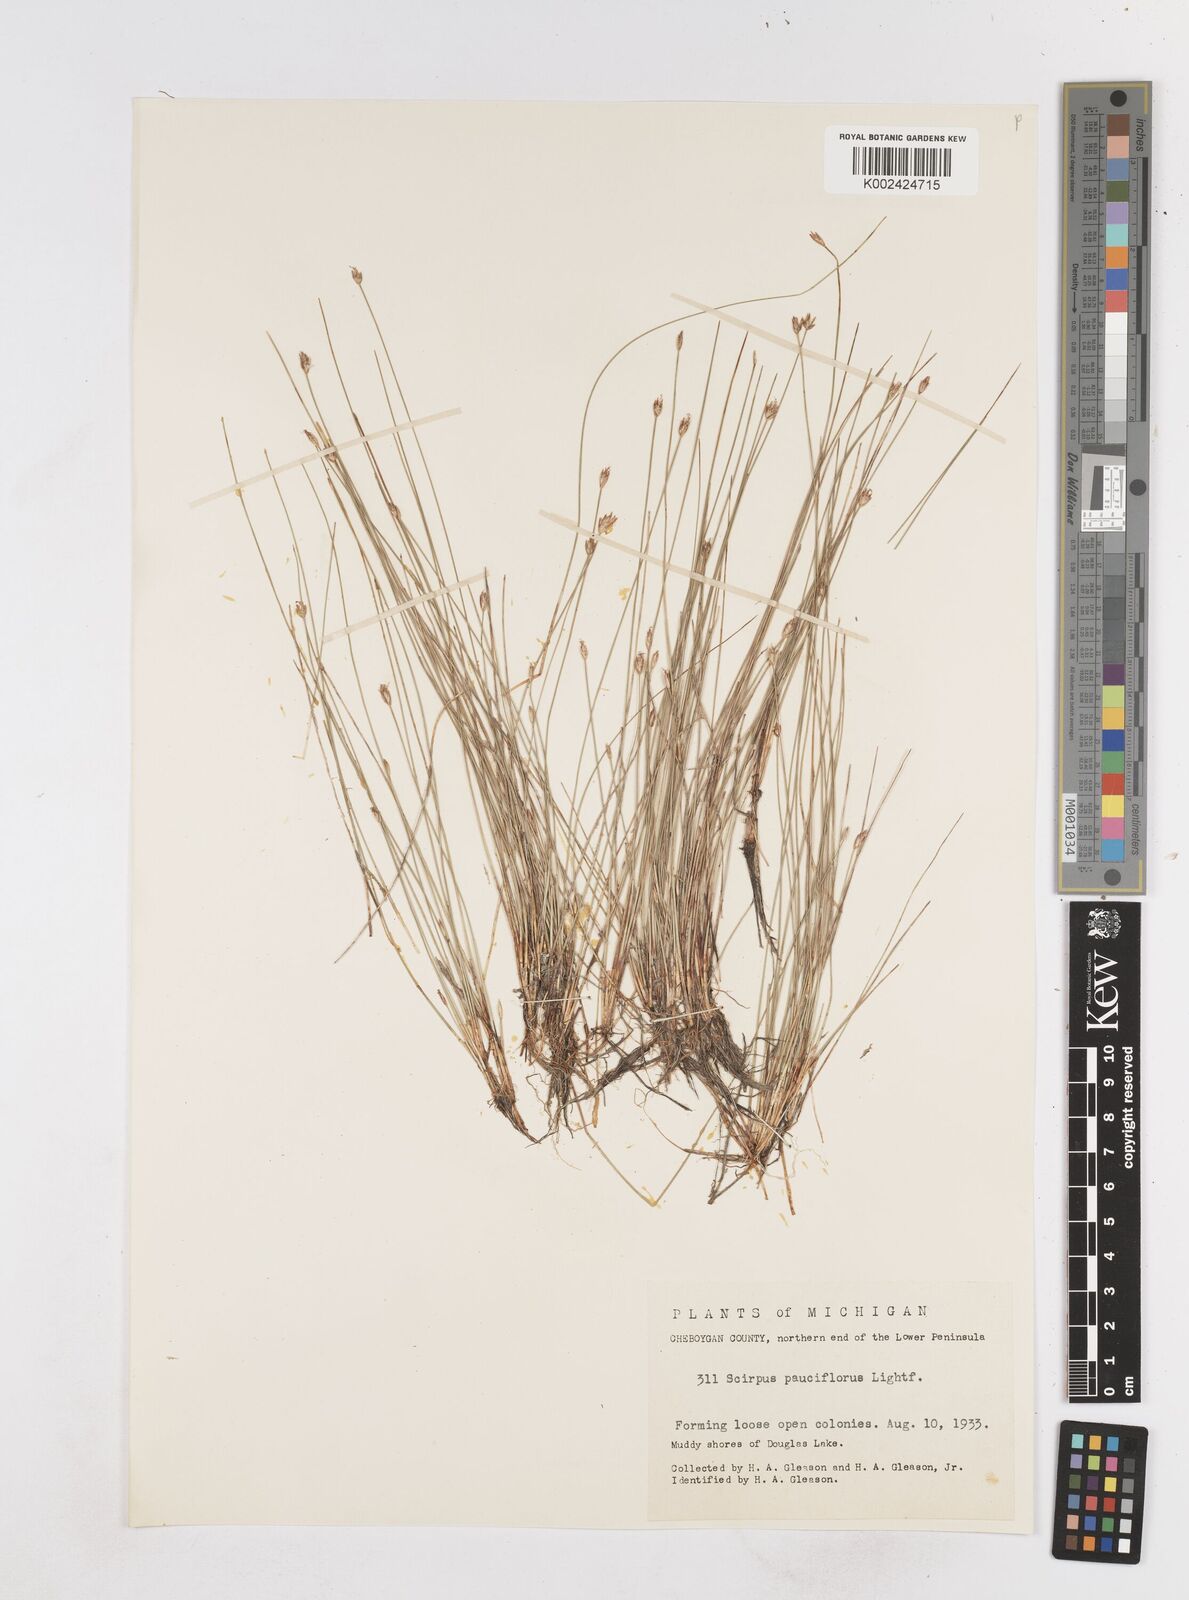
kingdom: Plantae
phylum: Tracheophyta
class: Liliopsida
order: Poales
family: Cyperaceae
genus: Eleocharis
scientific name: Eleocharis quinqueflora
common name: Few-flowered spike-rush
